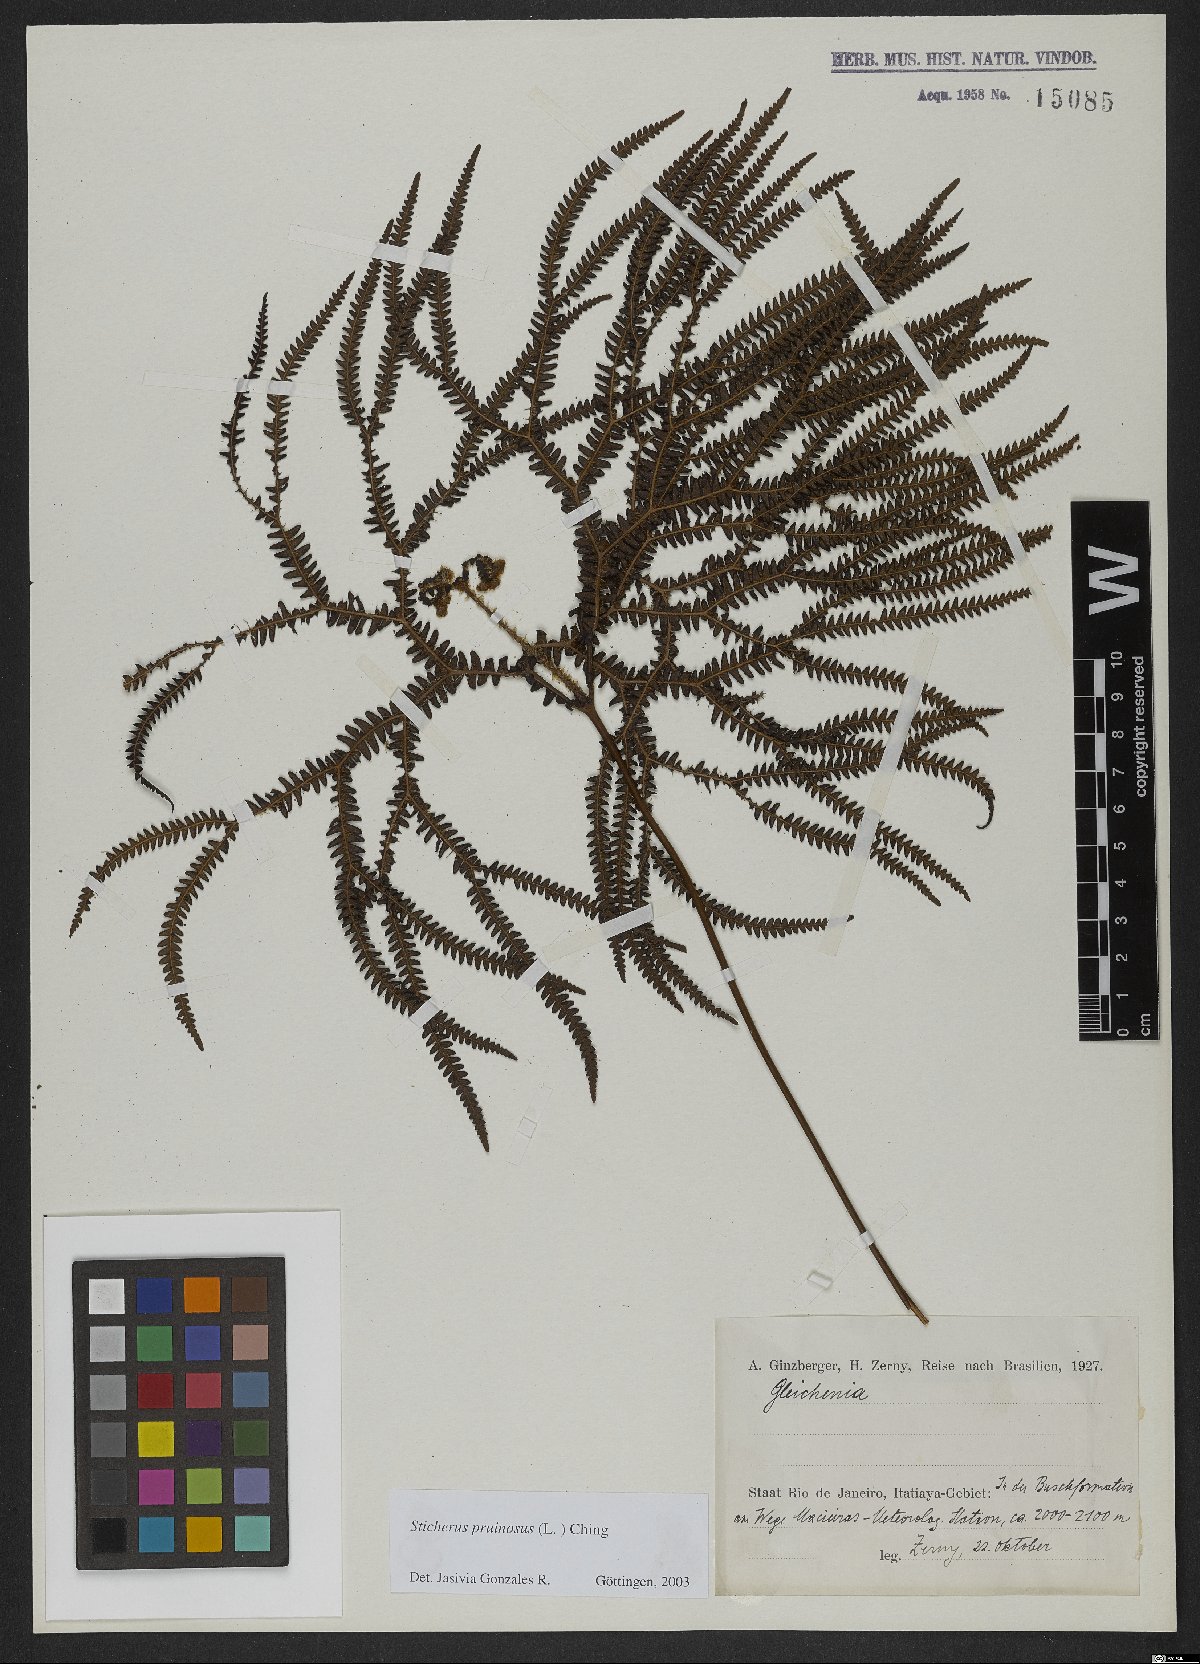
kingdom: Plantae
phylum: Tracheophyta
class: Polypodiopsida
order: Gleicheniales
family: Gleicheniaceae
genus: Sticherus
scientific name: Sticherus pruinosus
